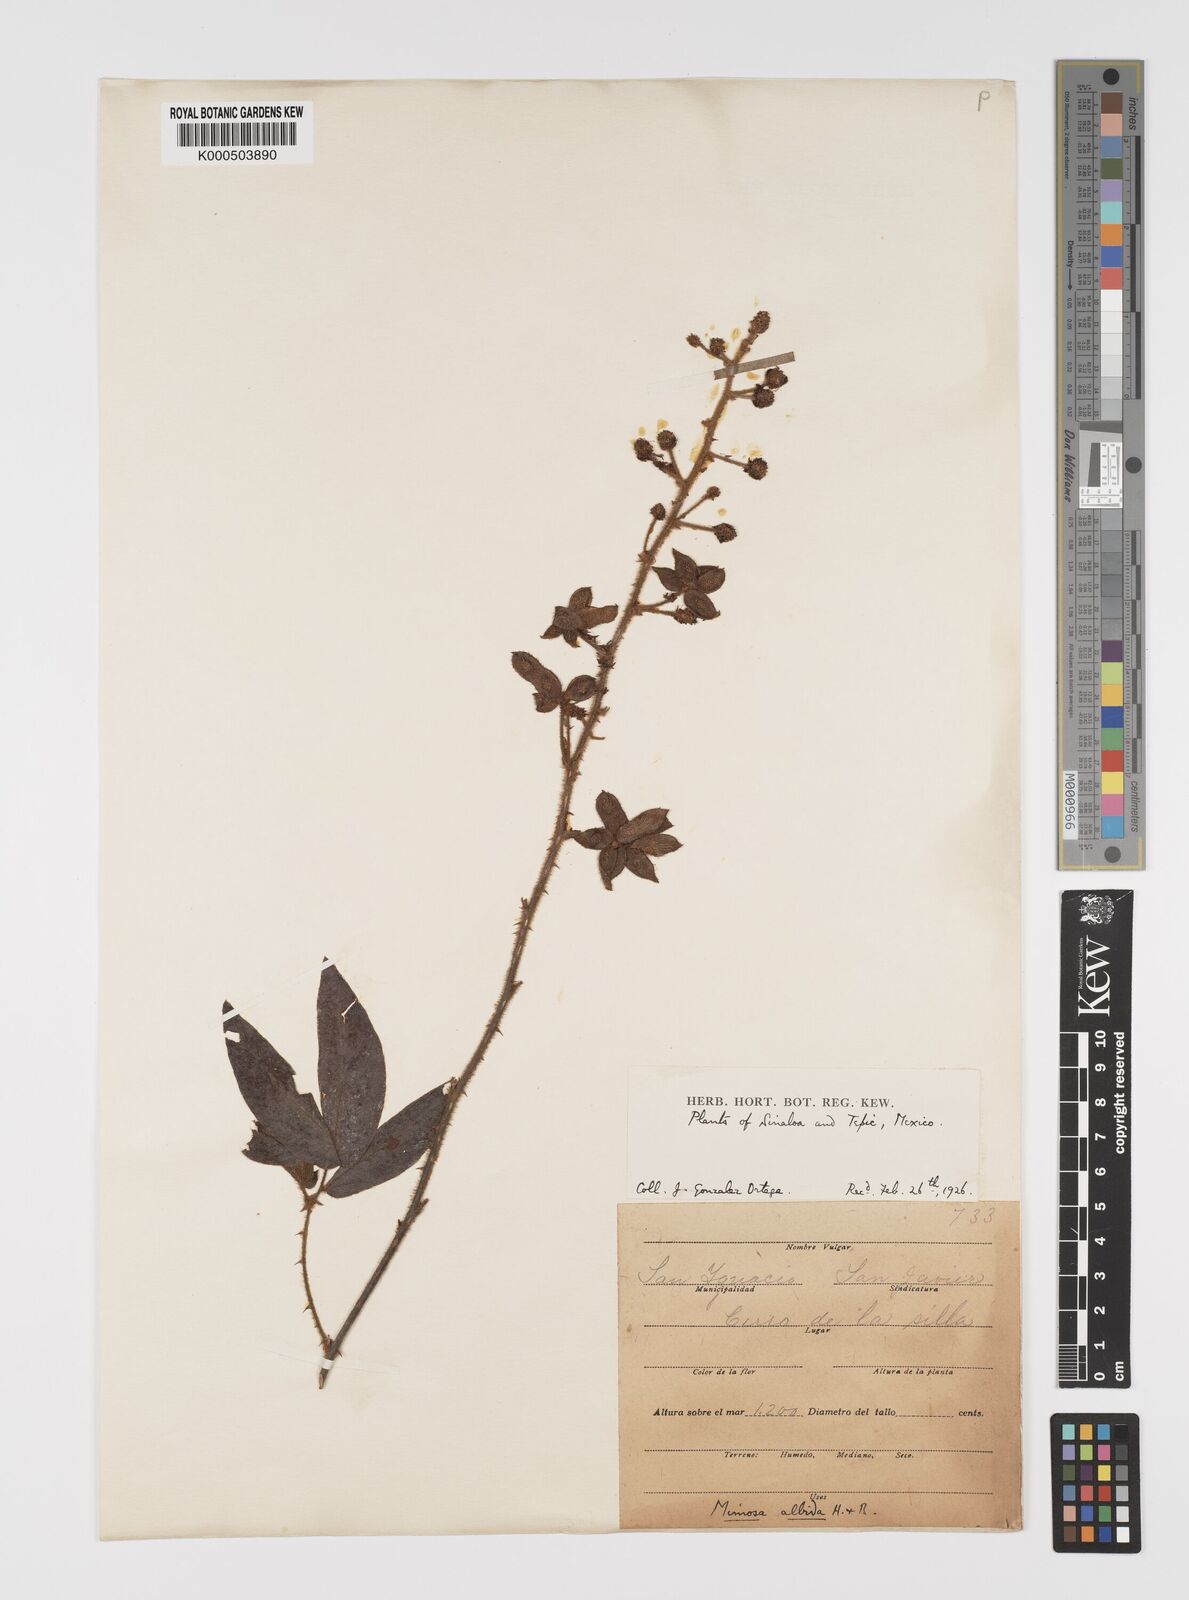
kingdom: Plantae
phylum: Tracheophyta
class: Magnoliopsida
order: Fabales
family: Fabaceae
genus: Mimosa
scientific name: Mimosa albida
